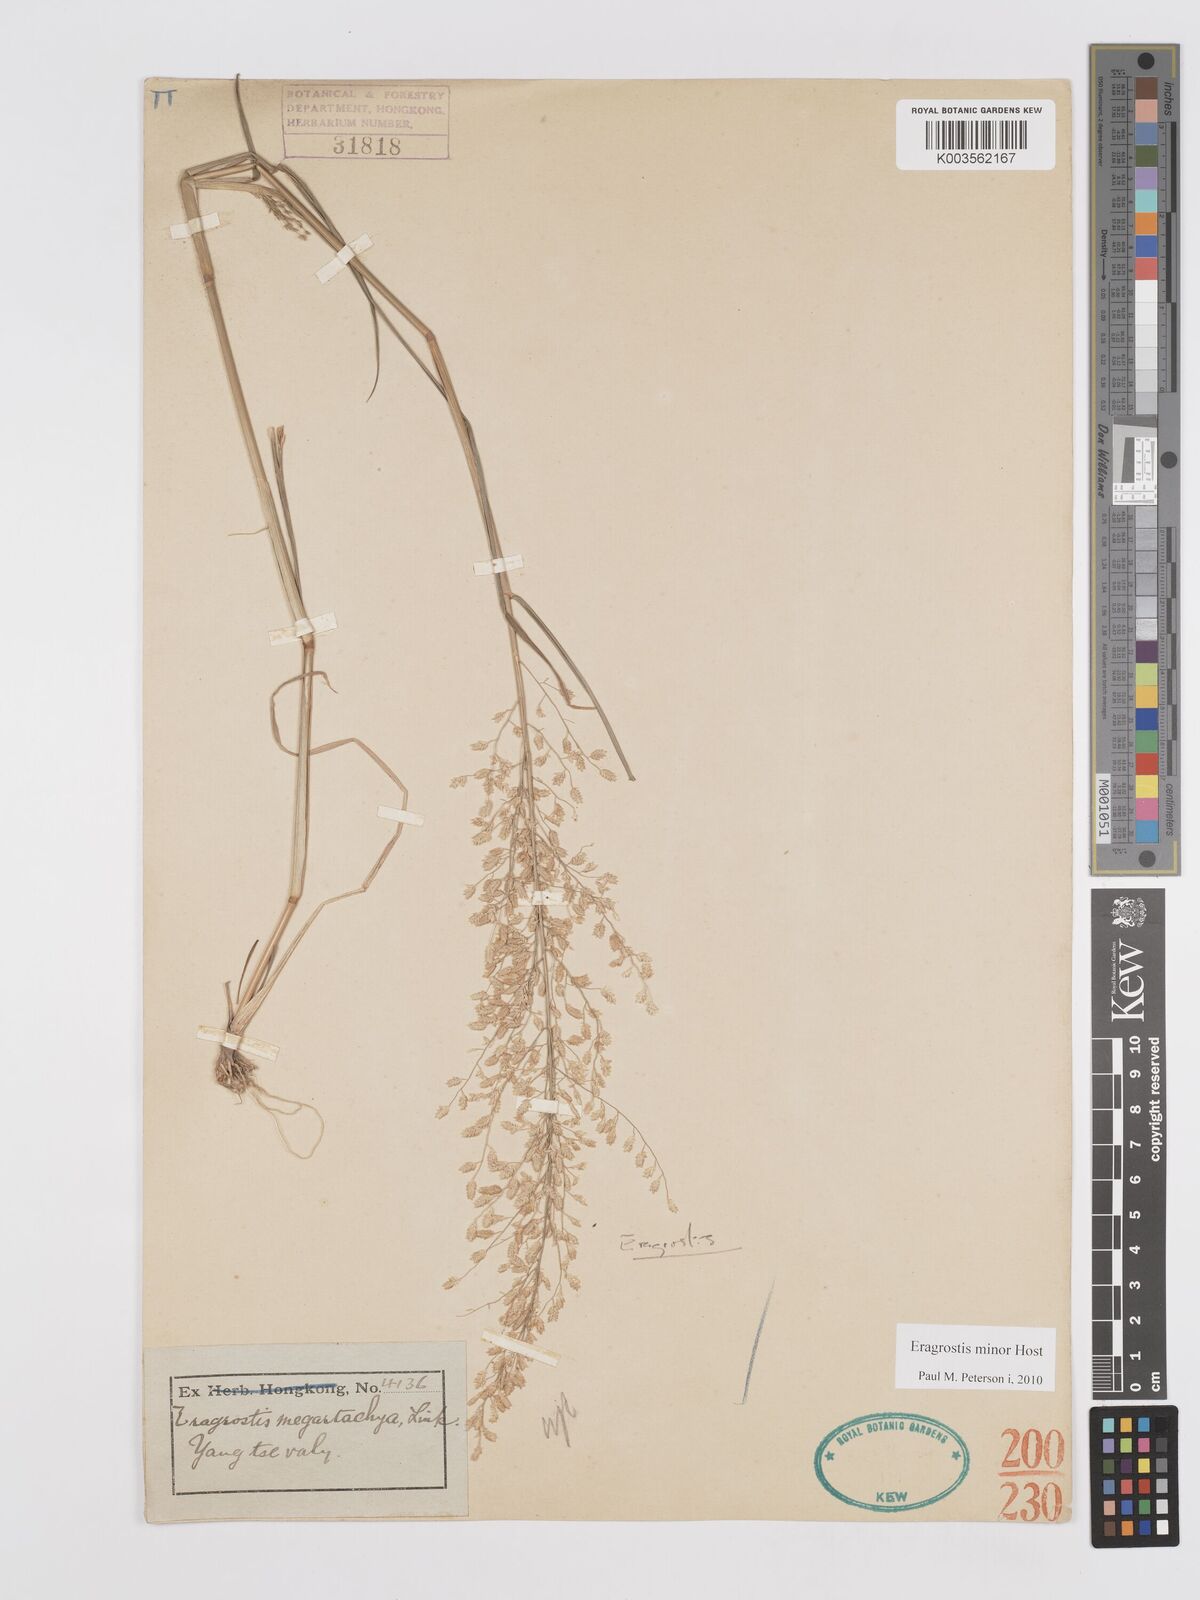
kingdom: Plantae
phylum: Tracheophyta
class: Liliopsida
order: Poales
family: Poaceae
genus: Eragrostis
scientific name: Eragrostis minor
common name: Small love-grass
